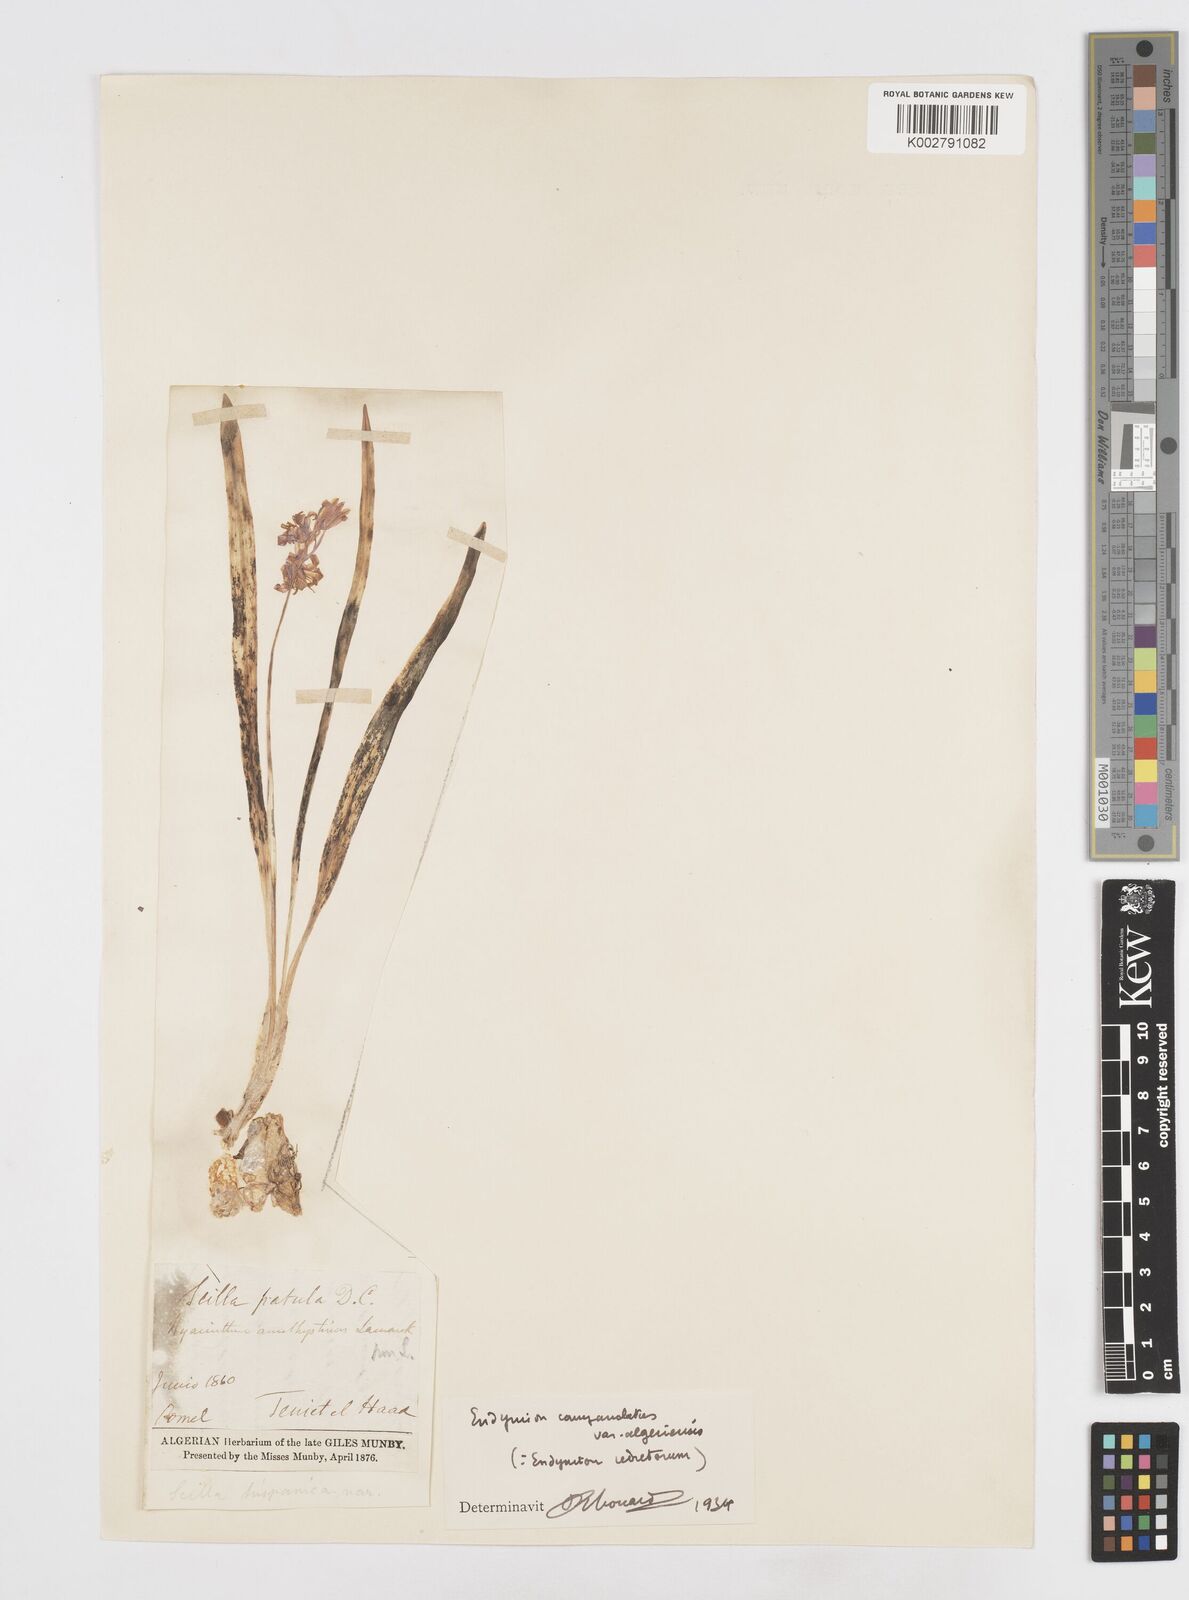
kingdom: Plantae
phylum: Tracheophyta
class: Liliopsida
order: Asparagales
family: Asparagaceae
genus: Hyacinthoides
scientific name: Hyacinthoides hispanica
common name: Spanish bluebell
